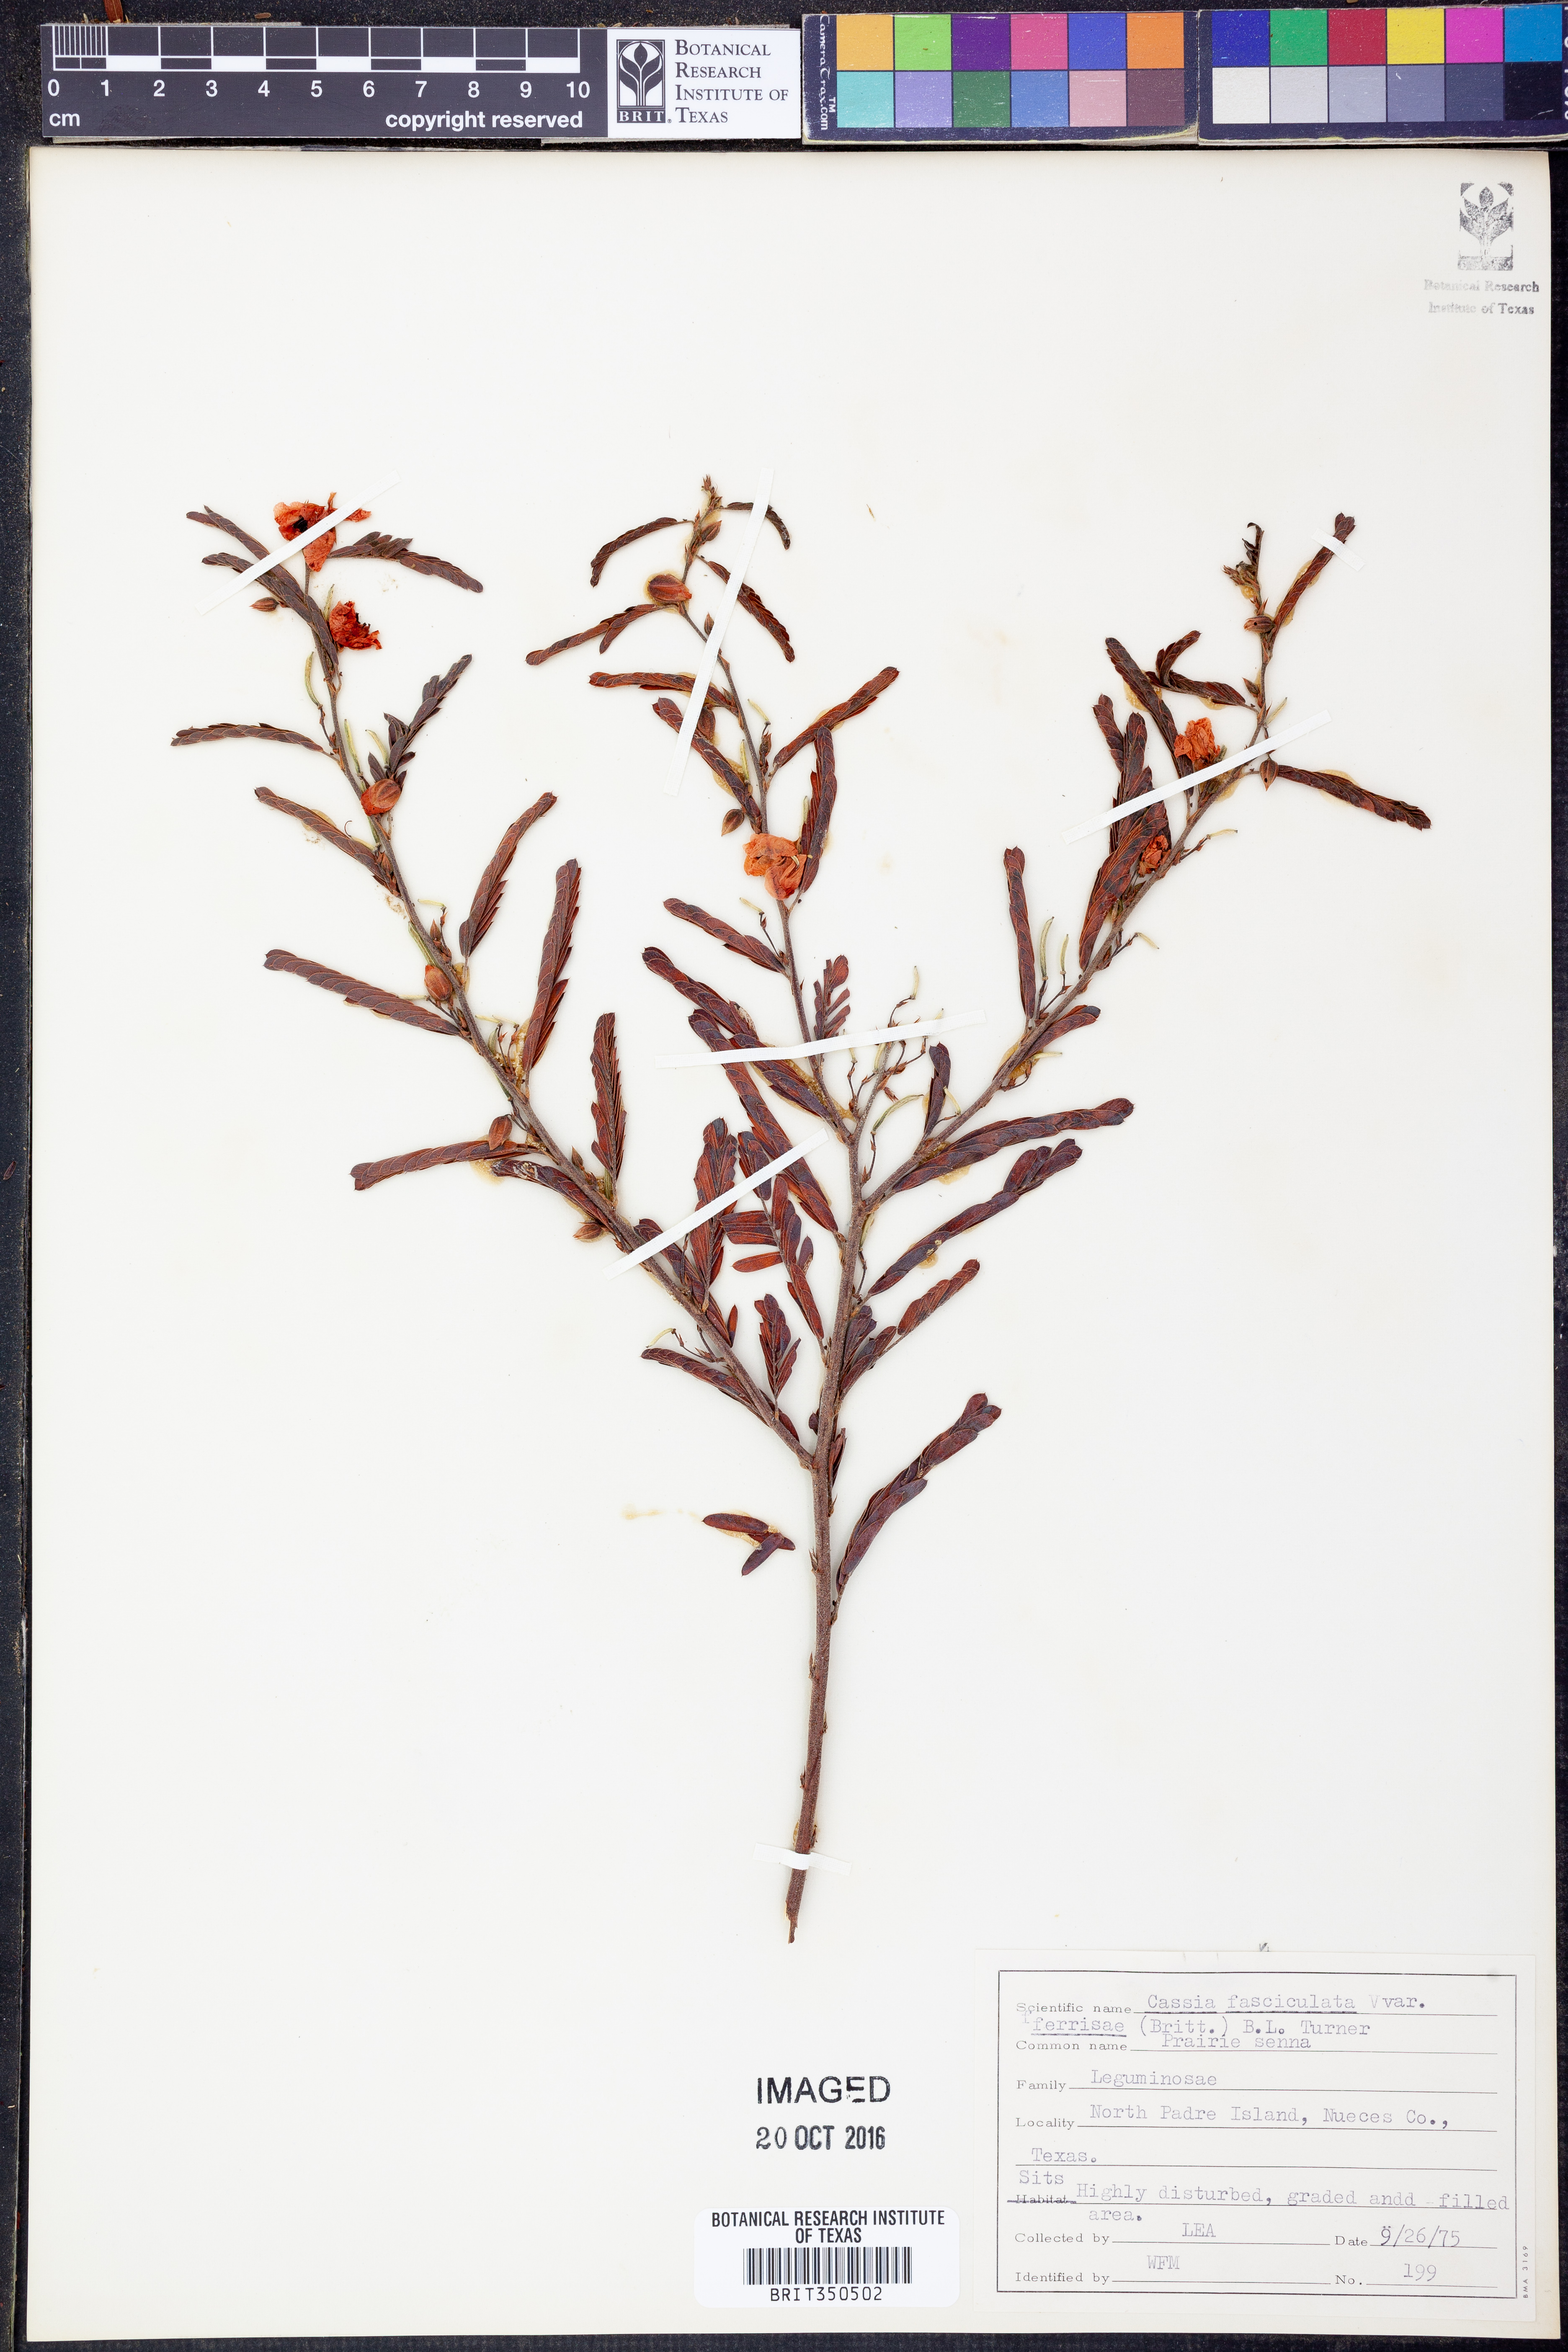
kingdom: Plantae
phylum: Tracheophyta
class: Magnoliopsida
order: Fabales
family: Fabaceae
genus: Chamaecrista
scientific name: Chamaecrista fasciculata
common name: Golden cassia
